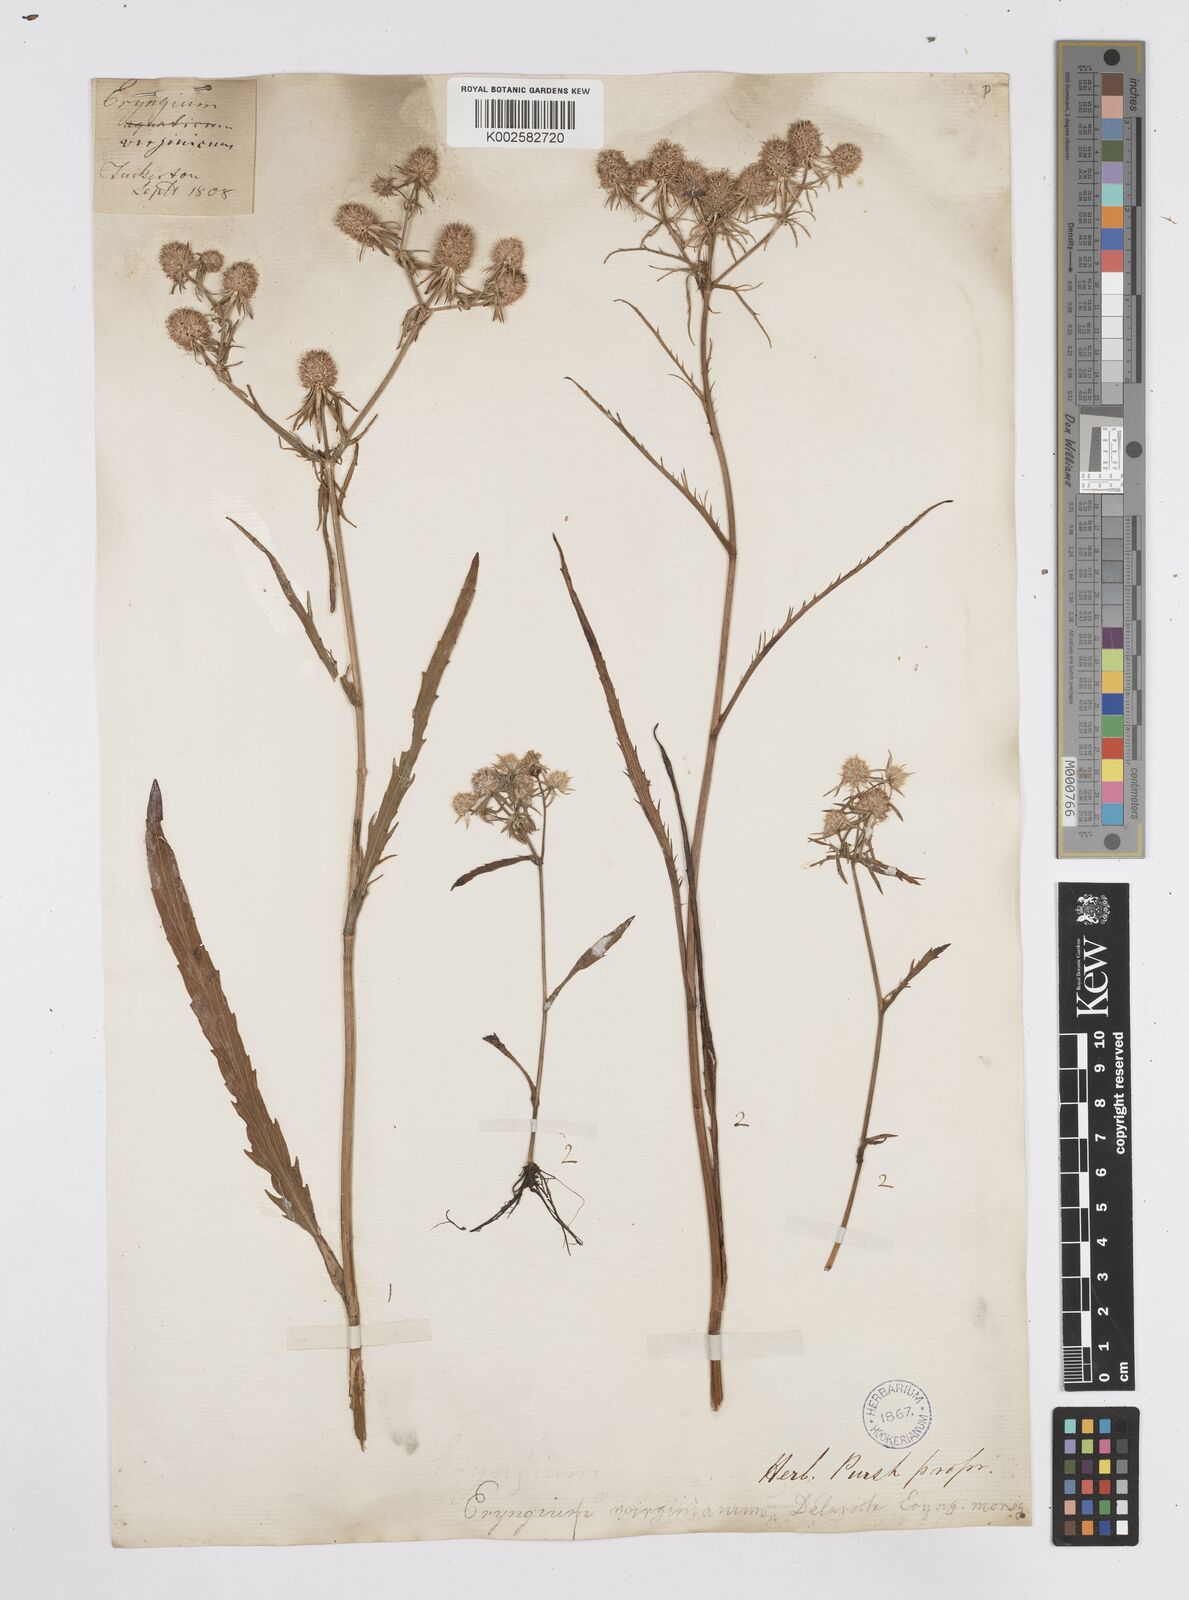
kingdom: Plantae
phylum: Tracheophyta
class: Magnoliopsida
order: Apiales
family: Apiaceae
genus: Eryngium
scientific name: Eryngium aquaticum
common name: Water eryngo
